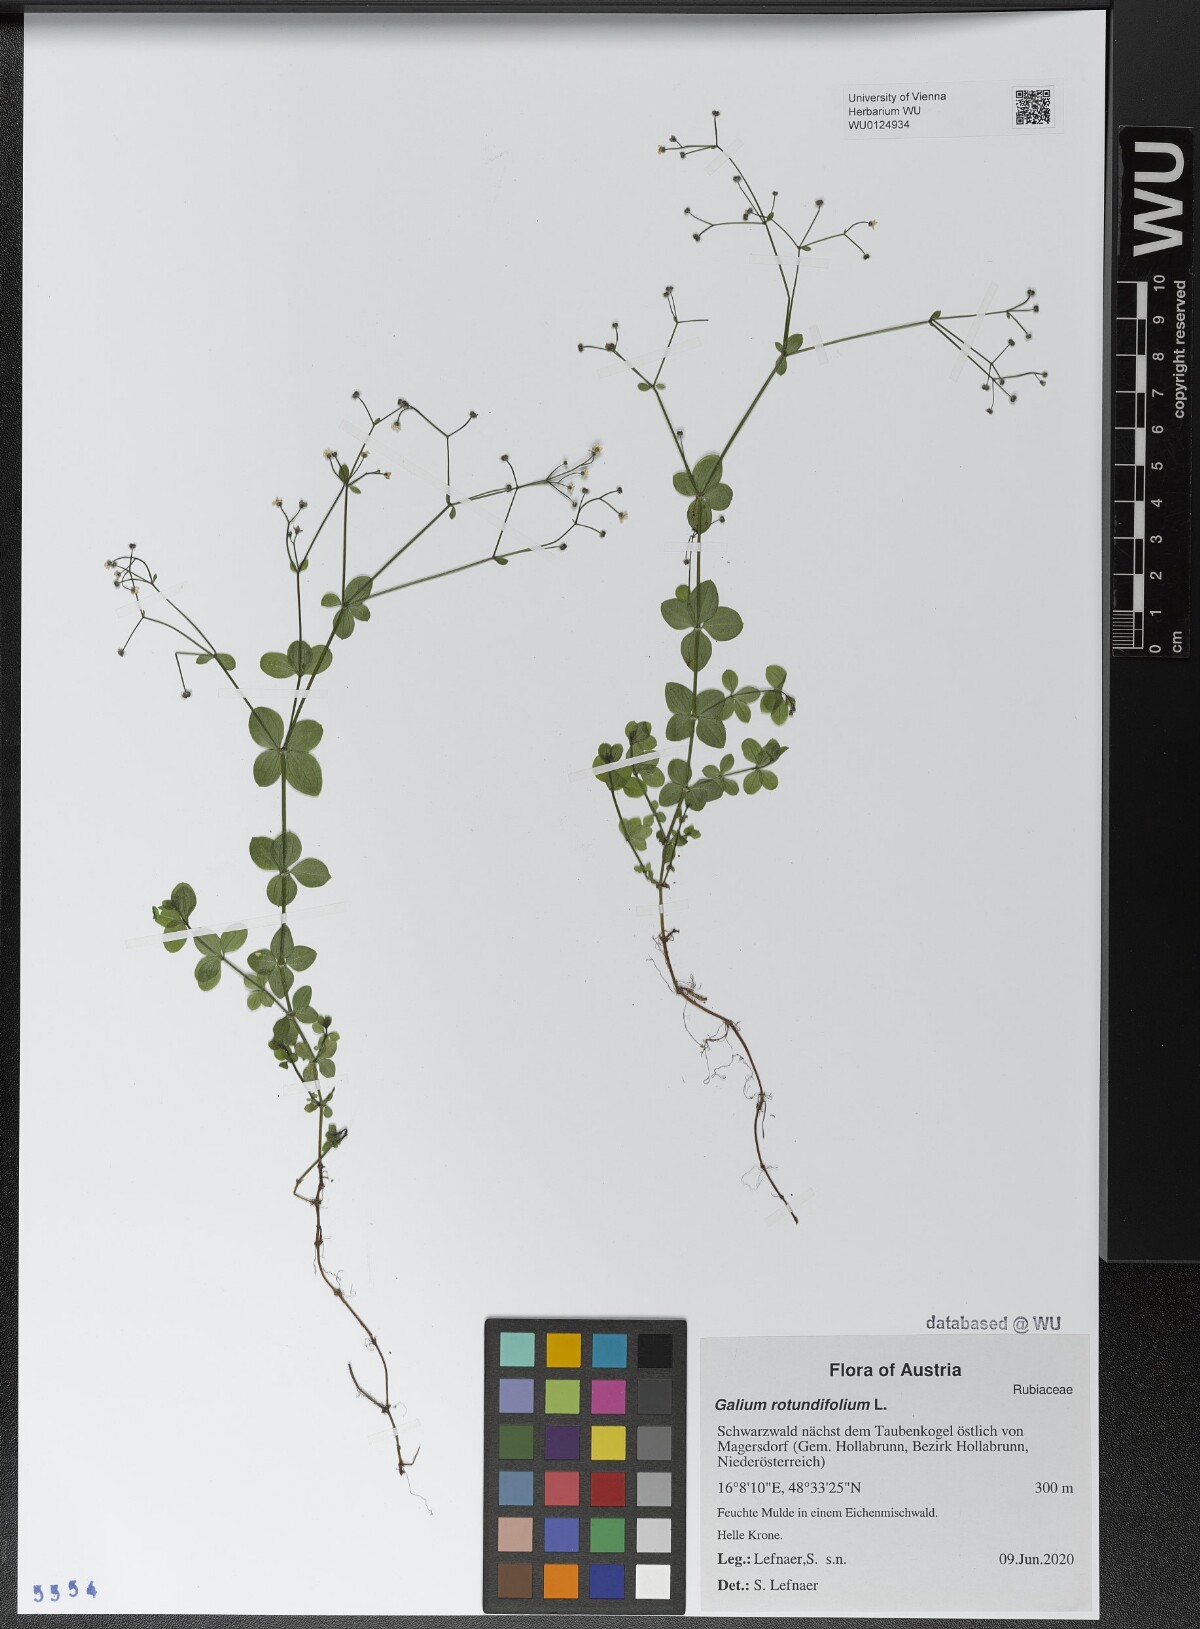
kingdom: Plantae
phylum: Tracheophyta
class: Magnoliopsida
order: Gentianales
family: Rubiaceae
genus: Galium
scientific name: Galium rotundifolium
